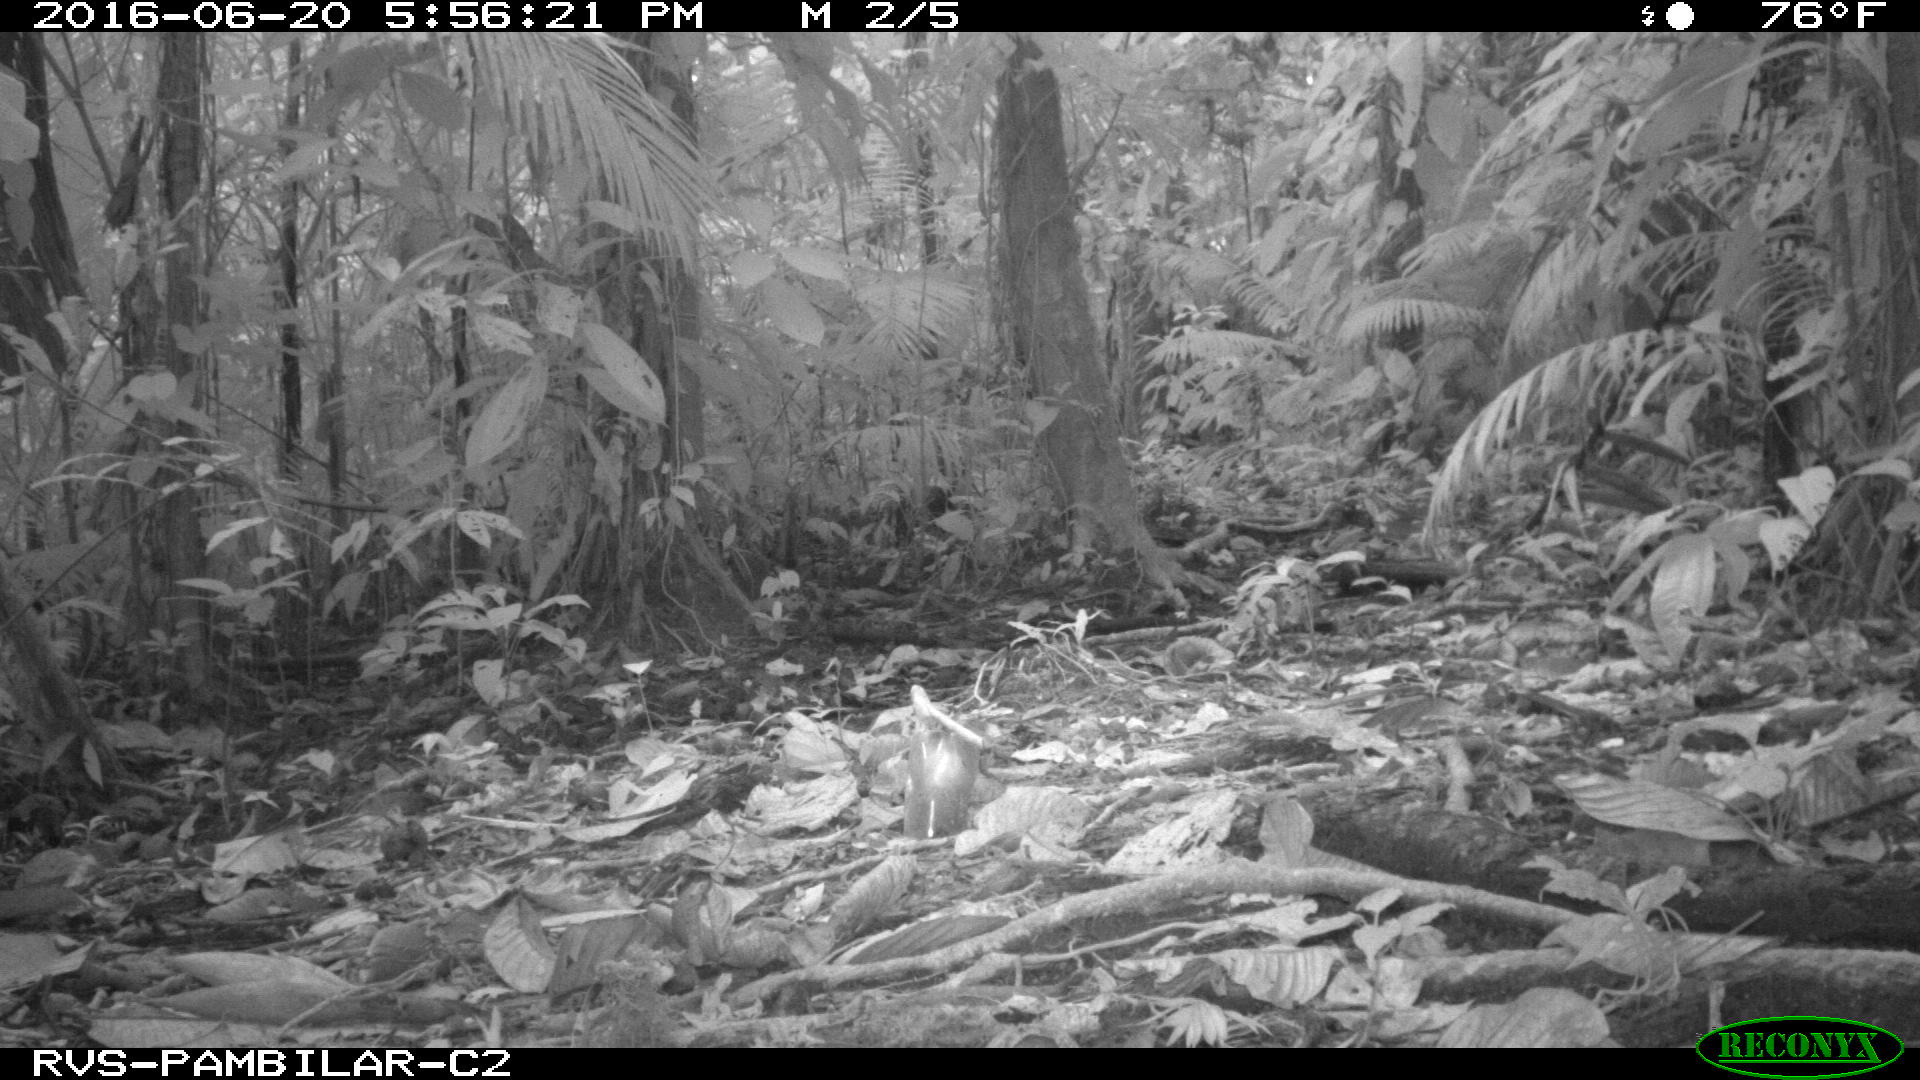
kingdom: Animalia
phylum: Chordata
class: Mammalia
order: Artiodactyla
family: Tayassuidae
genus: Tayassu
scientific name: Tayassu pecari
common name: White-lipped peccary
